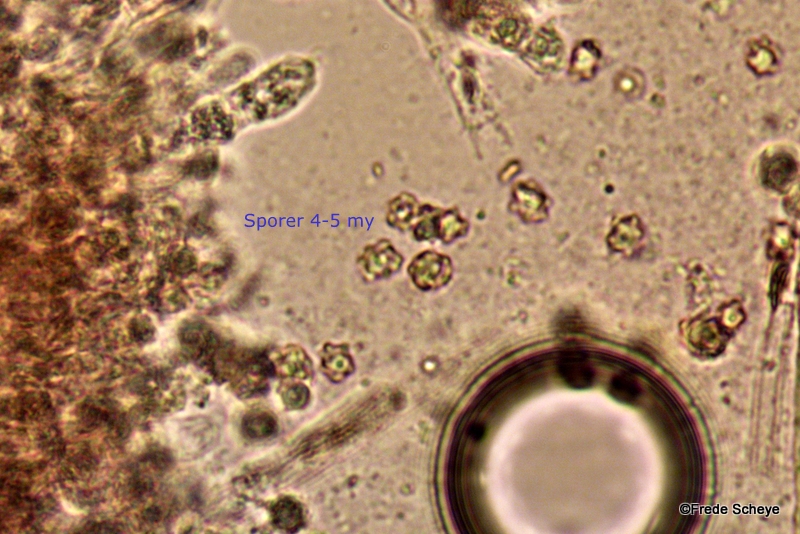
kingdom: Fungi
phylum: Basidiomycota
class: Agaricomycetes
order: Thelephorales
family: Bankeraceae
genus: Hydnellum
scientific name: Hydnellum concrescens
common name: bæltet korkpigsvamp
